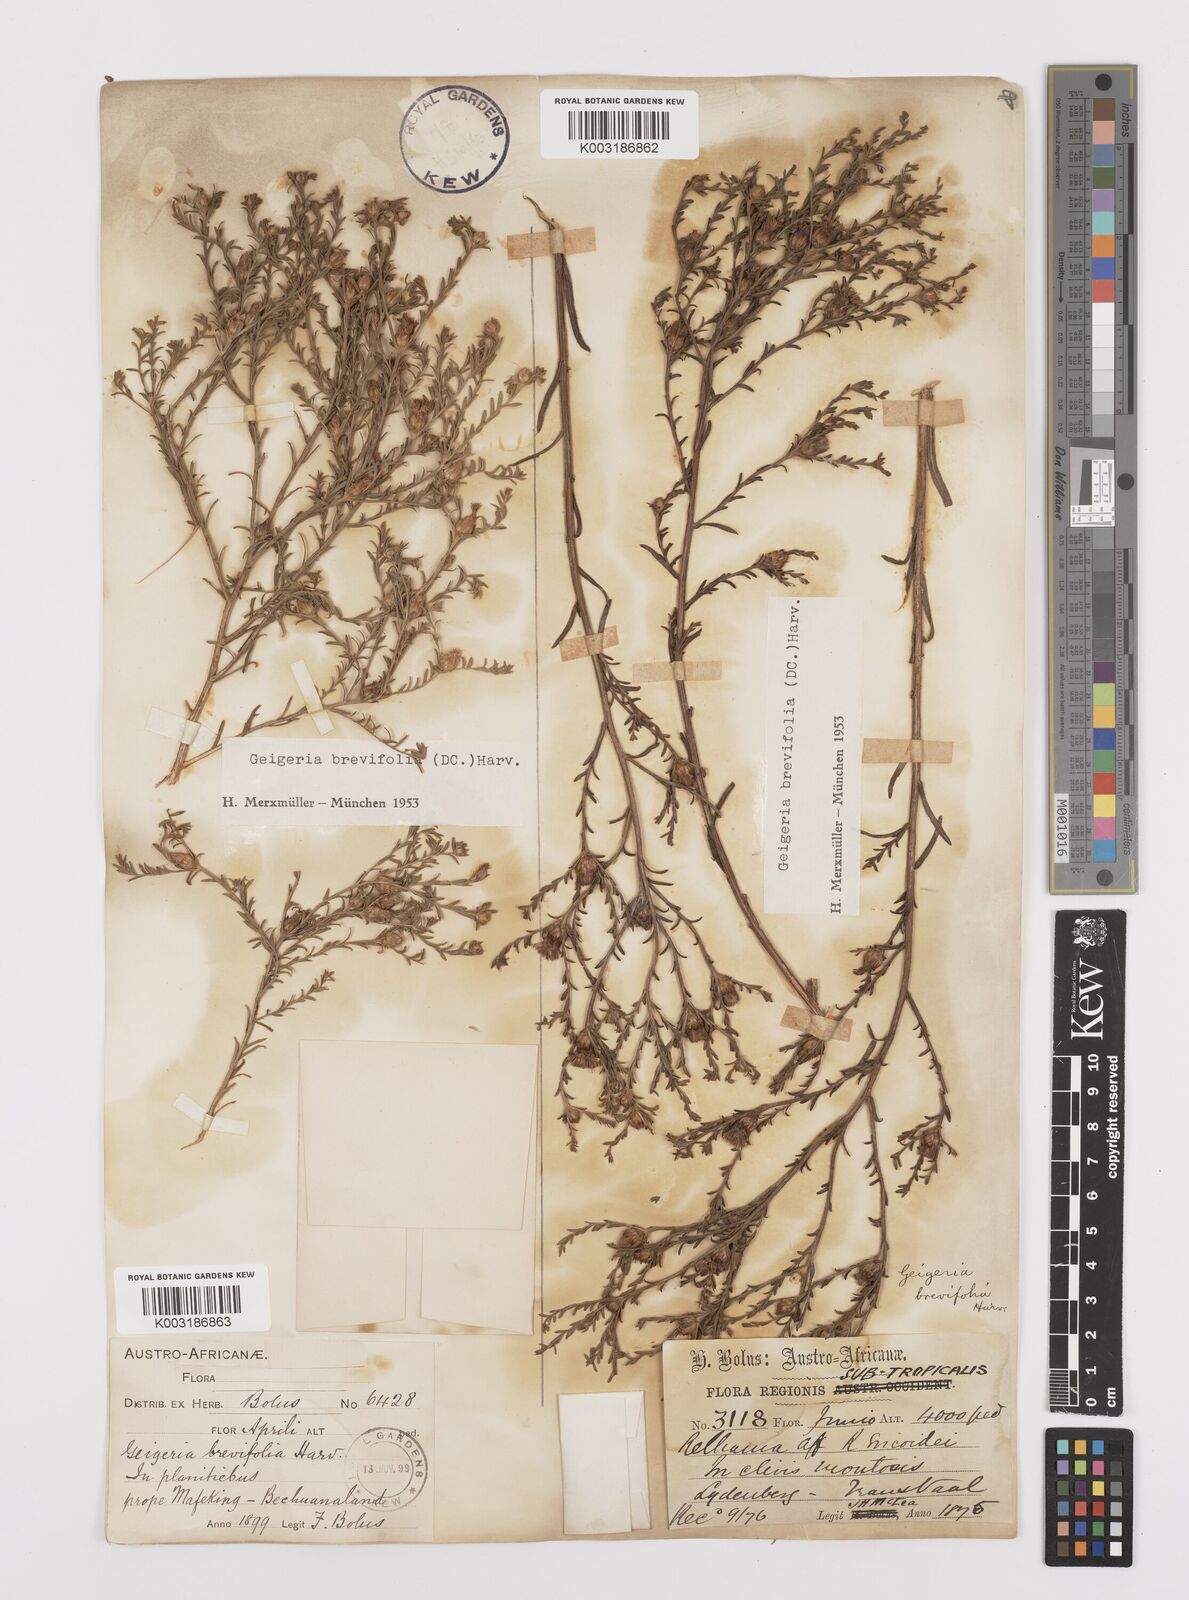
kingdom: Plantae
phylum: Tracheophyta
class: Magnoliopsida
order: Asterales
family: Asteraceae
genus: Geigeria
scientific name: Geigeria brevifolia
